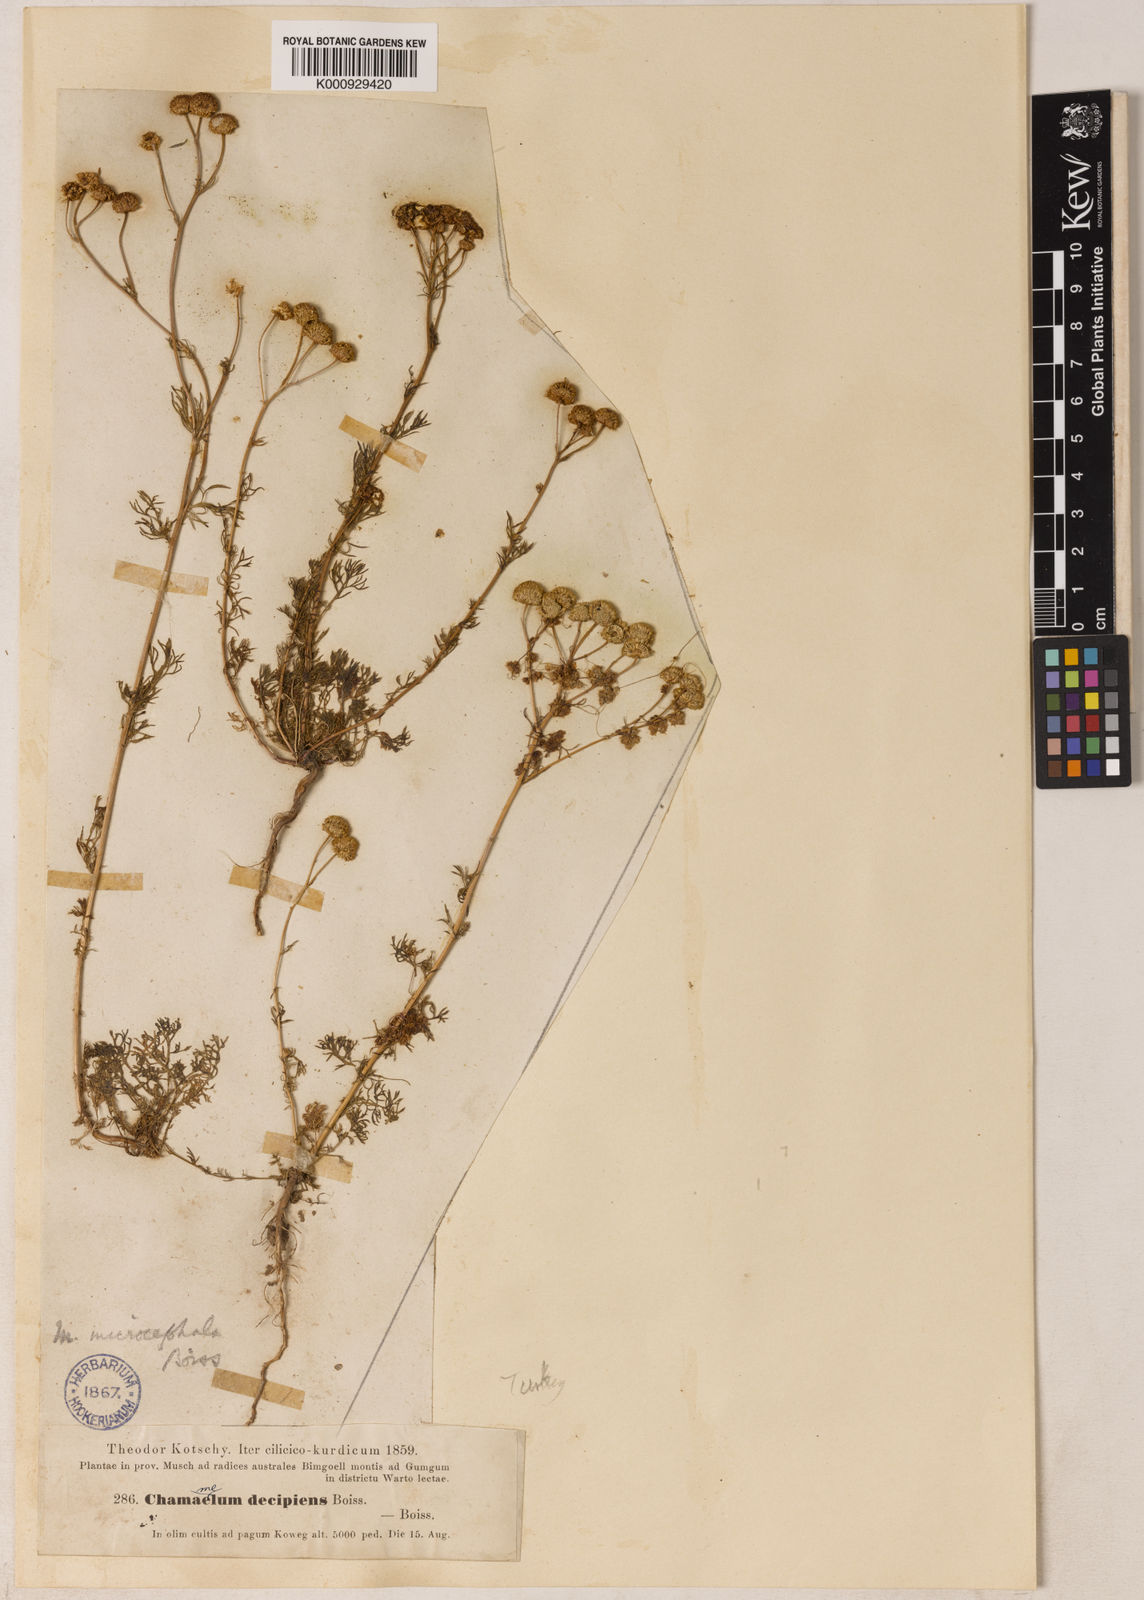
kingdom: Plantae
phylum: Tracheophyta
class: Magnoliopsida
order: Asterales
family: Asteraceae
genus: Tripleurospermum
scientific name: Tripleurospermum microcephalum
